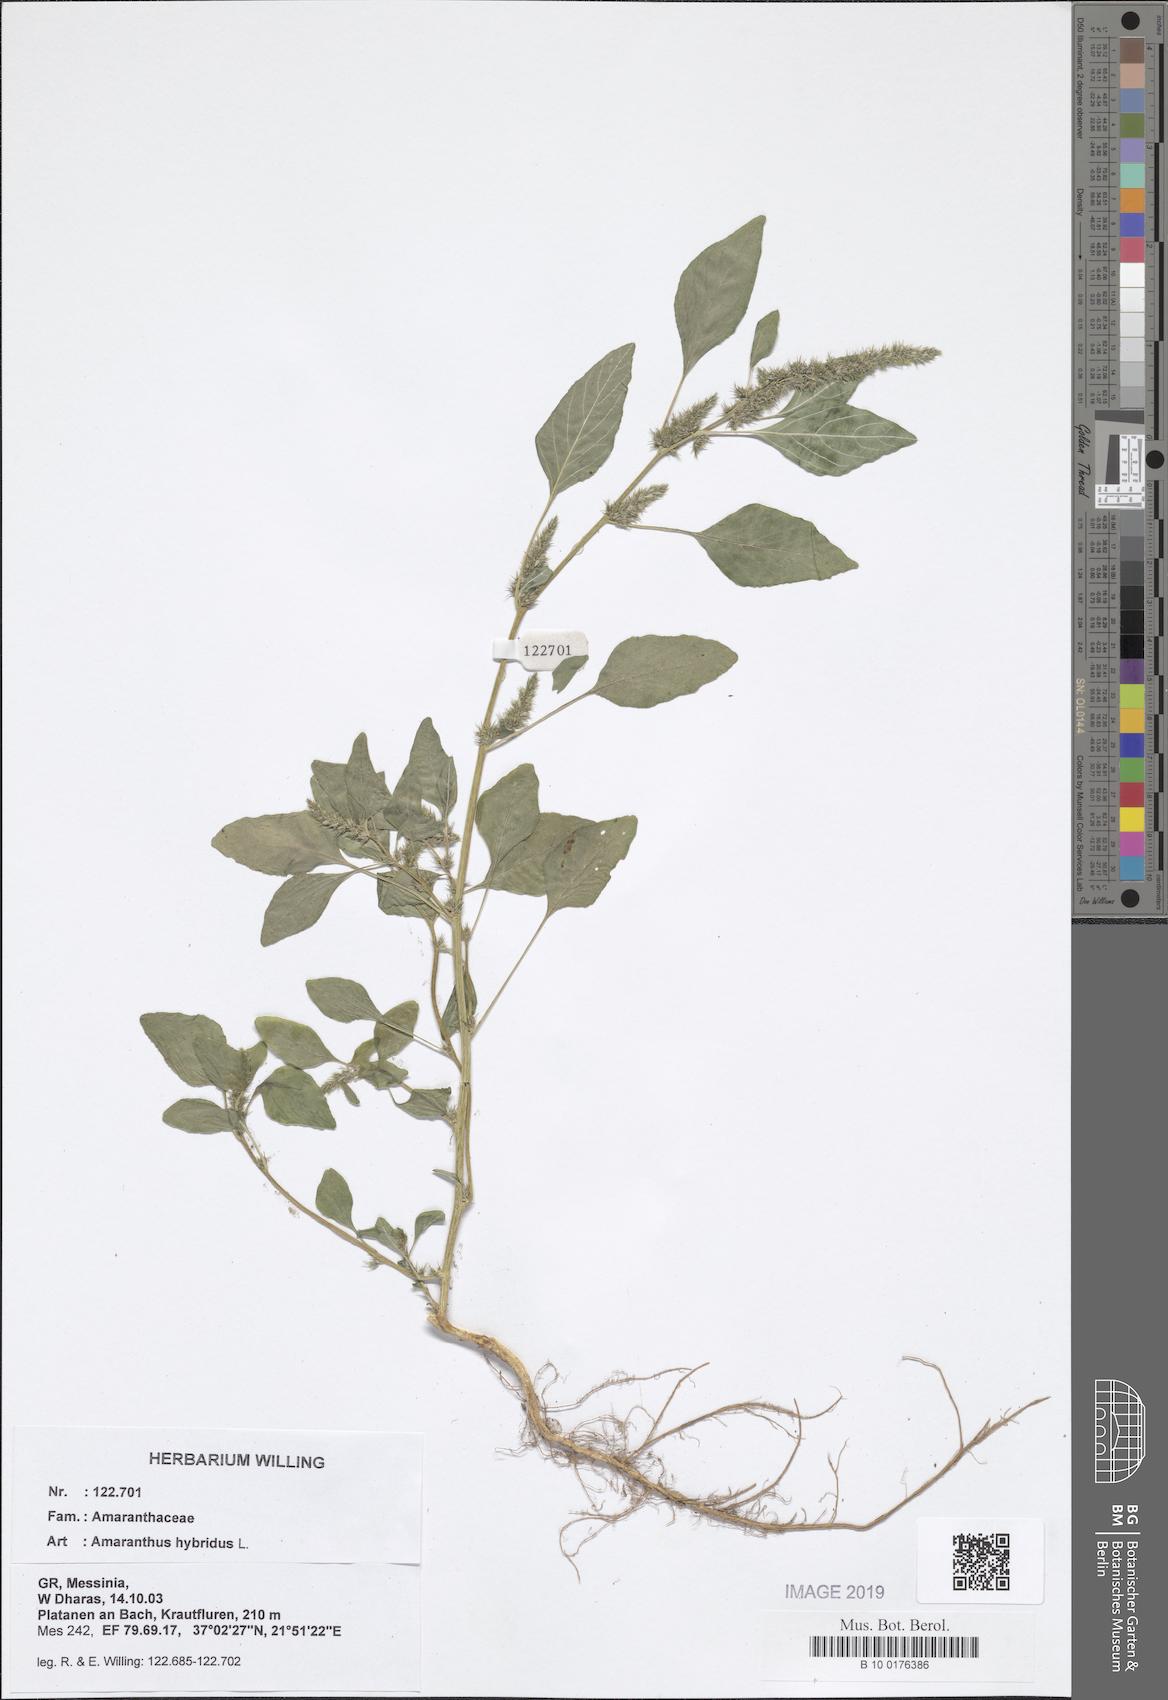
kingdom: Plantae
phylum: Tracheophyta
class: Magnoliopsida
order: Caryophyllales
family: Amaranthaceae
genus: Amaranthus
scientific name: Amaranthus hybridus
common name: Green amaranth
